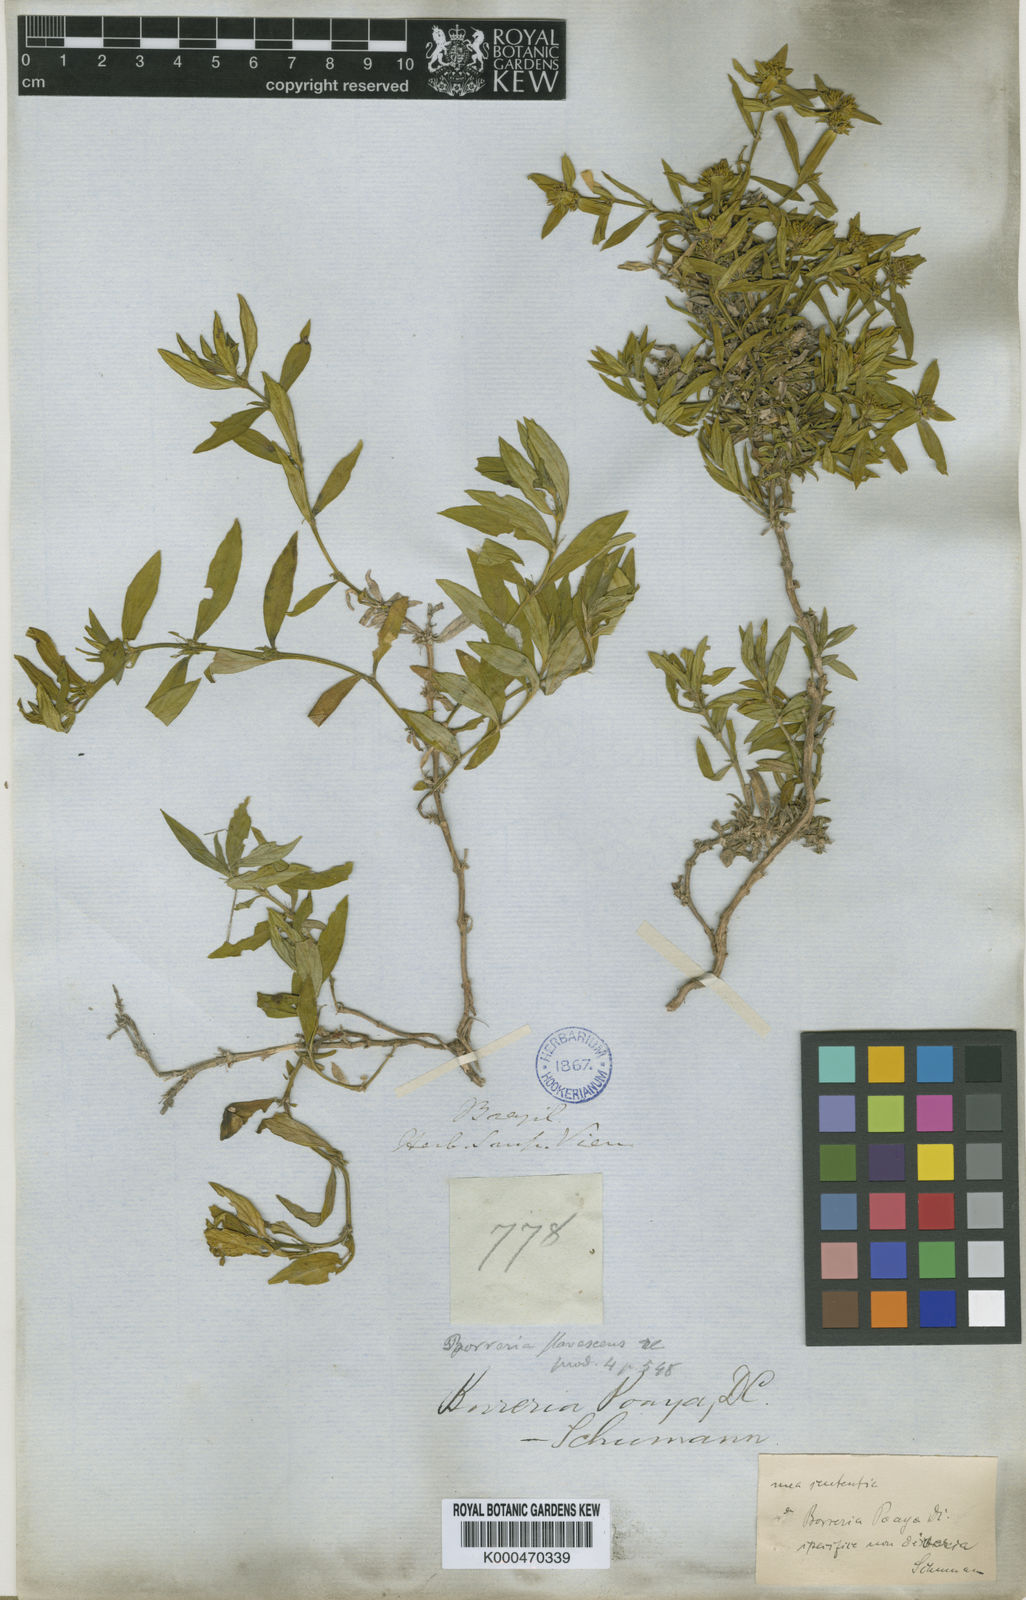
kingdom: Plantae
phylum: Tracheophyta
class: Magnoliopsida
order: Gentianales
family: Rubiaceae
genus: Spermacoce
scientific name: Spermacoce poaya
